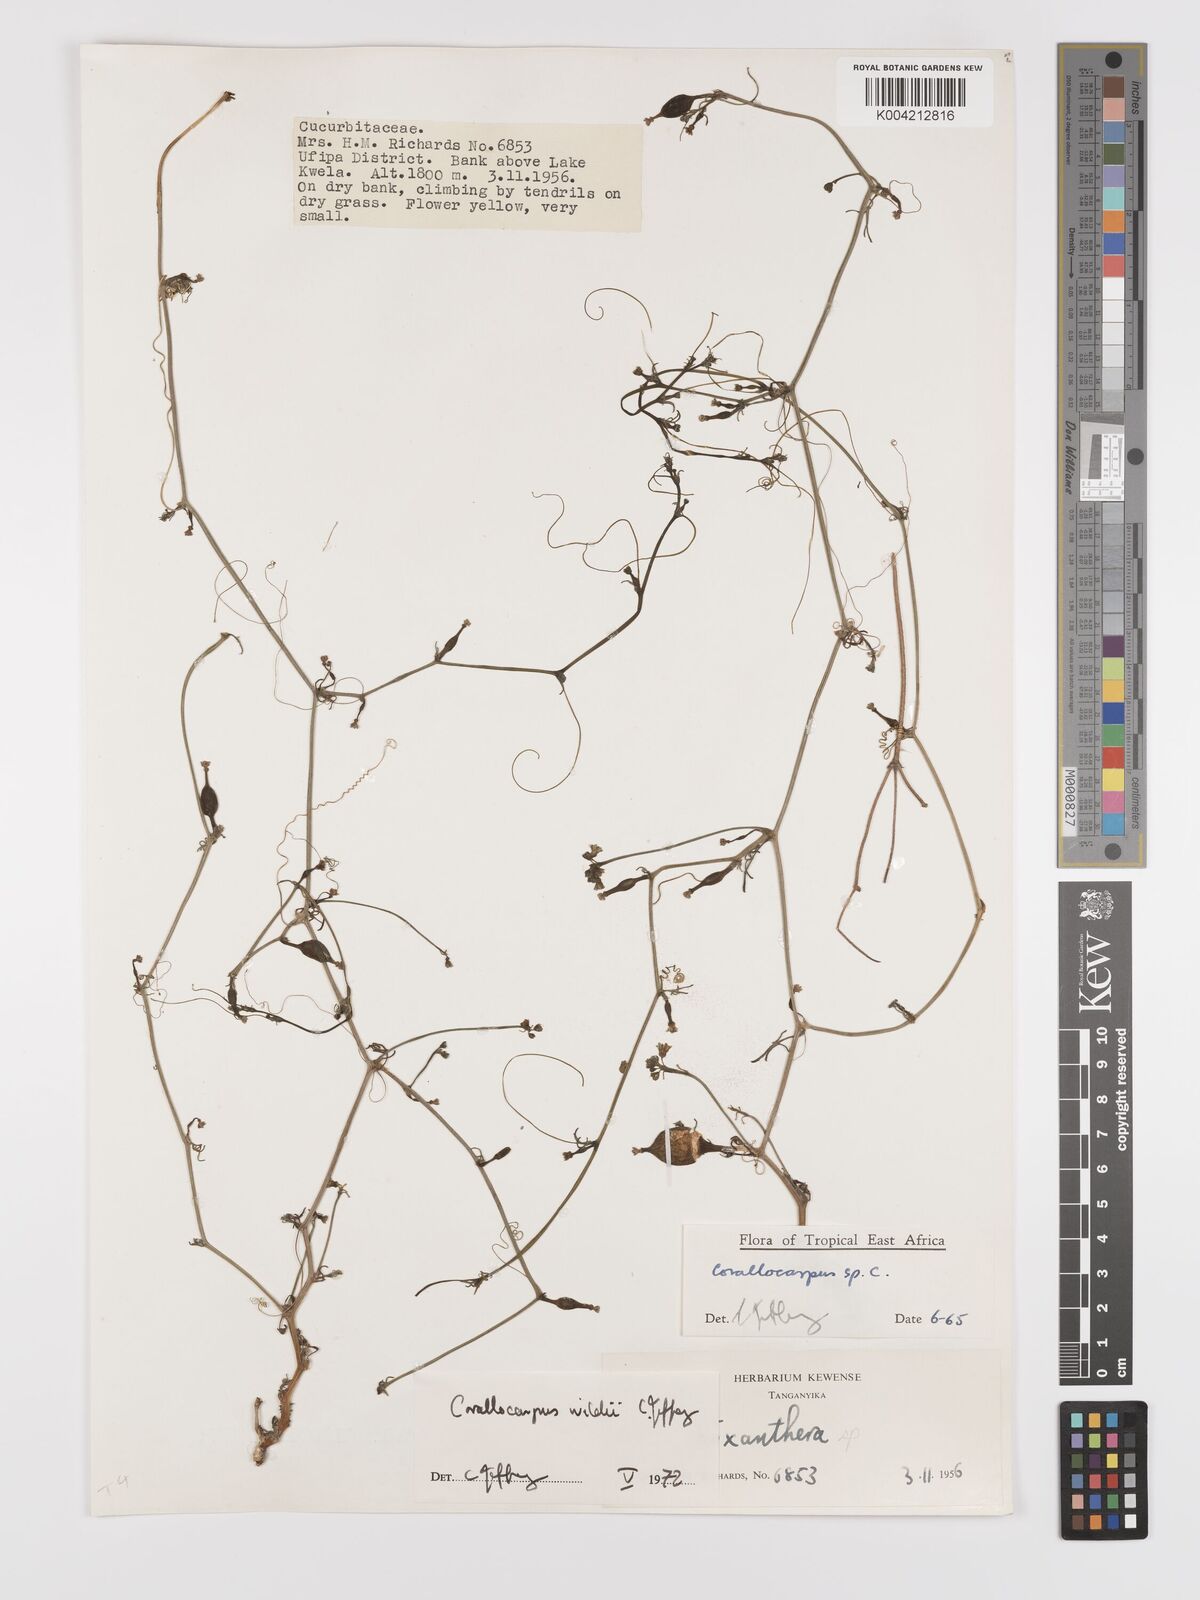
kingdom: Plantae
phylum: Tracheophyta
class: Magnoliopsida
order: Cucurbitales
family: Cucurbitaceae
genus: Corallocarpus
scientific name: Corallocarpus tenuissimus
